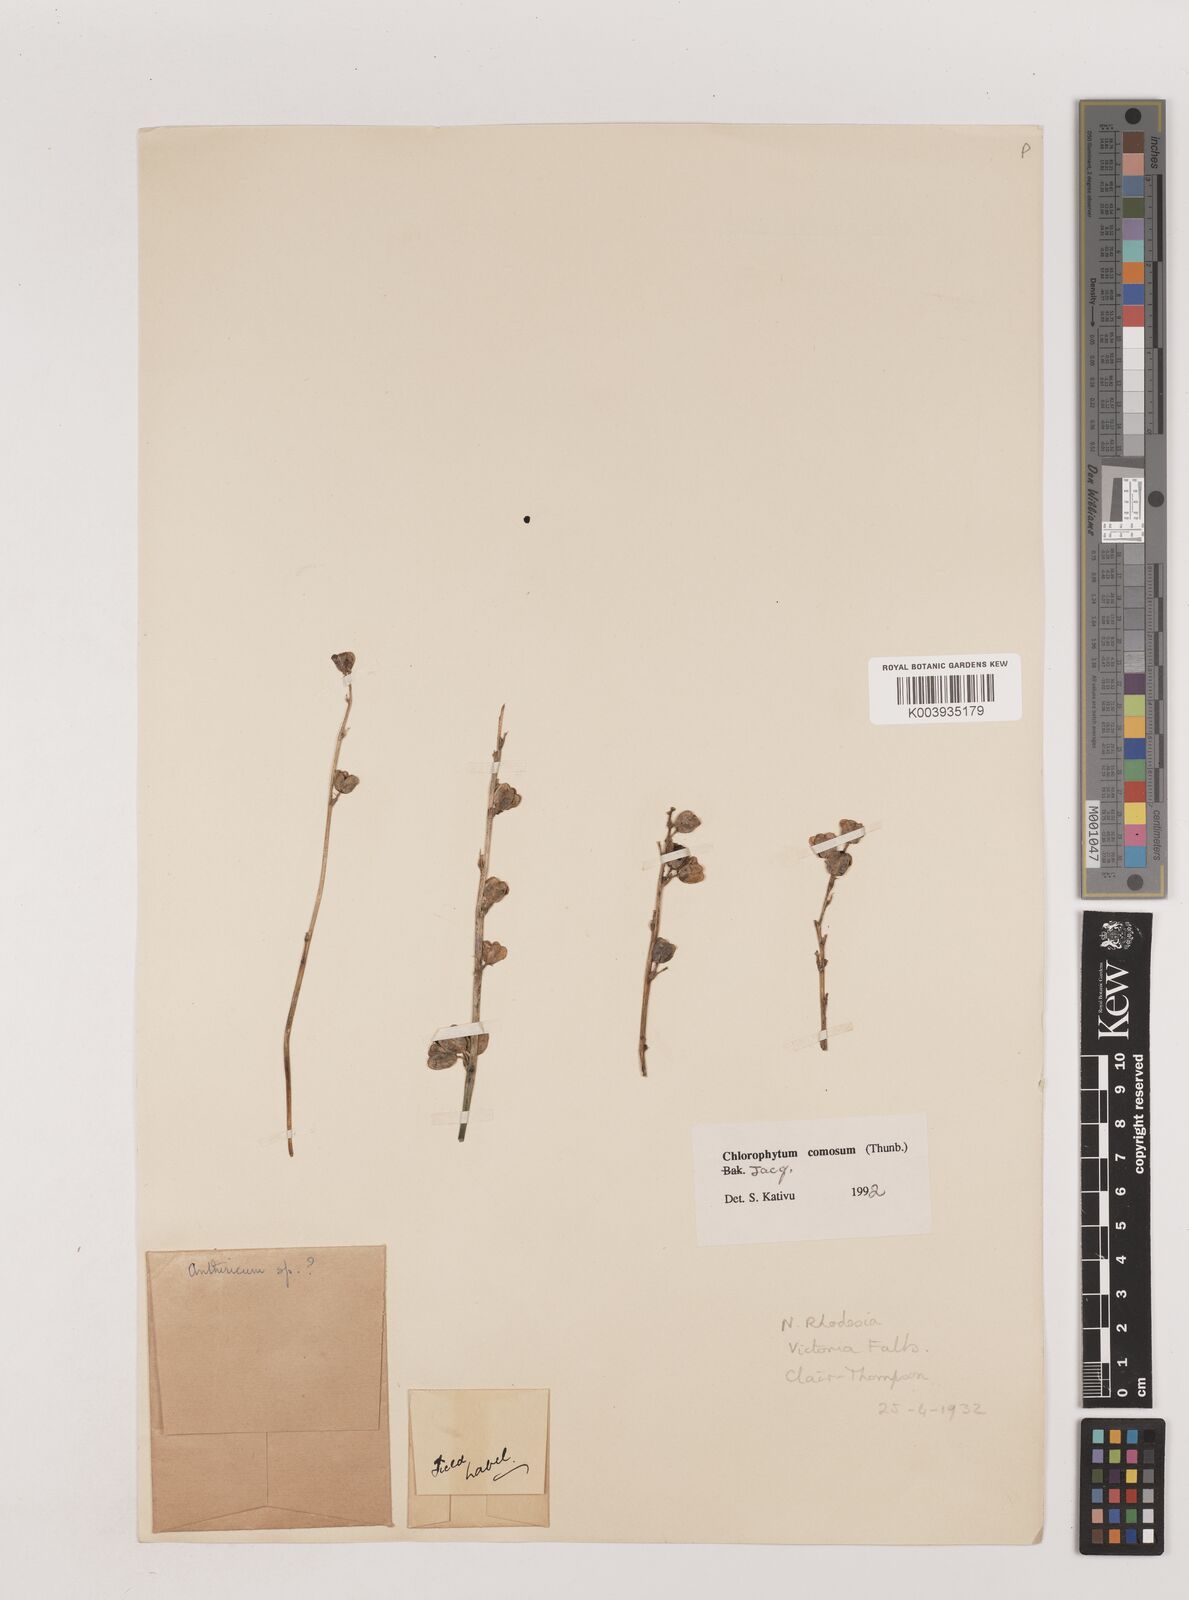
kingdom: Plantae
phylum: Tracheophyta
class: Liliopsida
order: Asparagales
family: Asparagaceae
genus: Chlorophytum
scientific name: Chlorophytum comosum
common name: Spider plant
